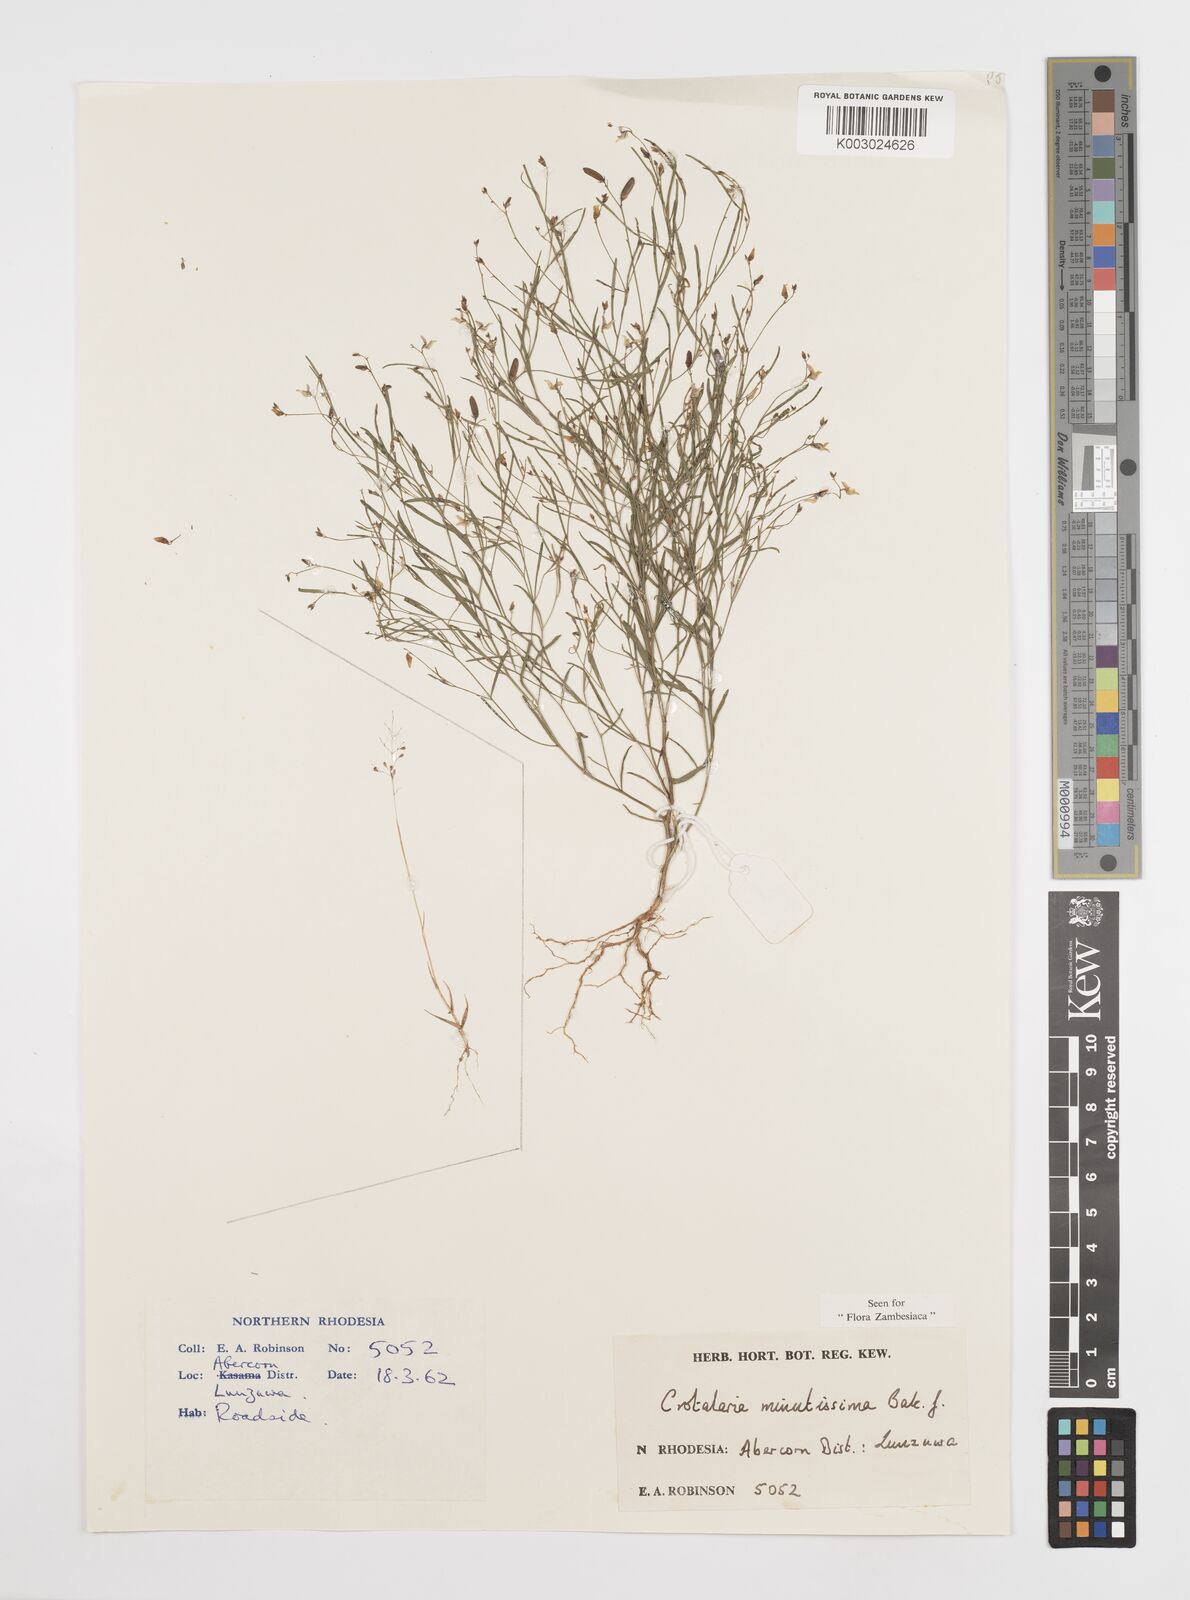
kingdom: Plantae
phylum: Tracheophyta
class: Magnoliopsida
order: Fabales
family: Fabaceae
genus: Crotalaria
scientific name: Crotalaria minutissima
